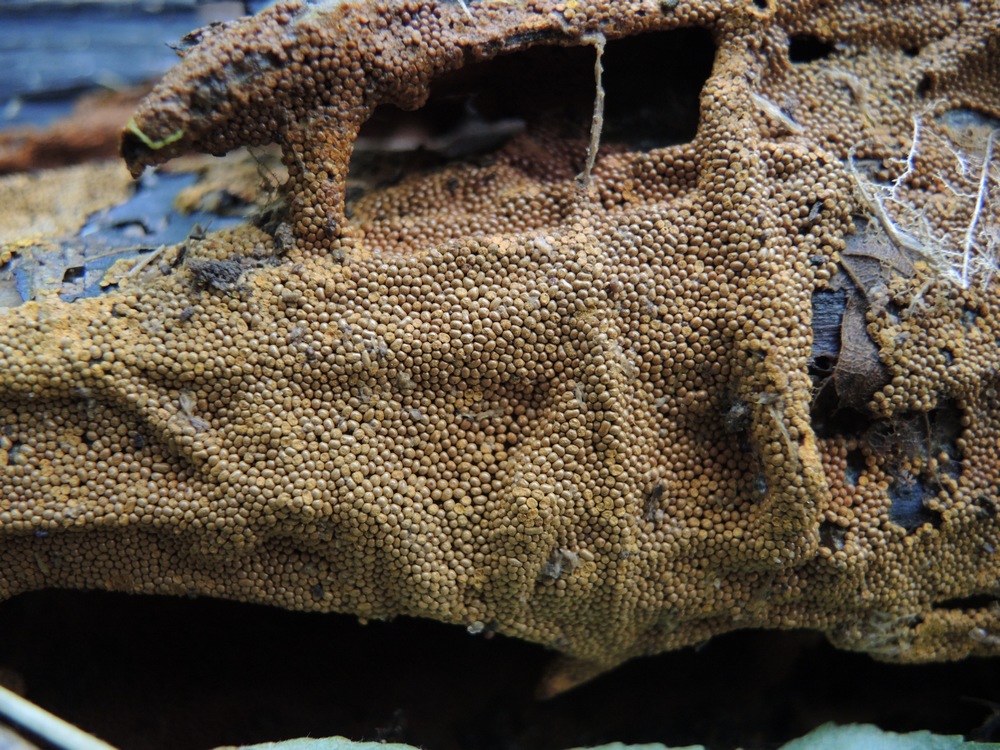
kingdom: Protozoa
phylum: Mycetozoa
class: Myxomycetes
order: Trichiales
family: Trichiaceae
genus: Trichia
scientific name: Trichia scabra
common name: tæppe-hårbold
